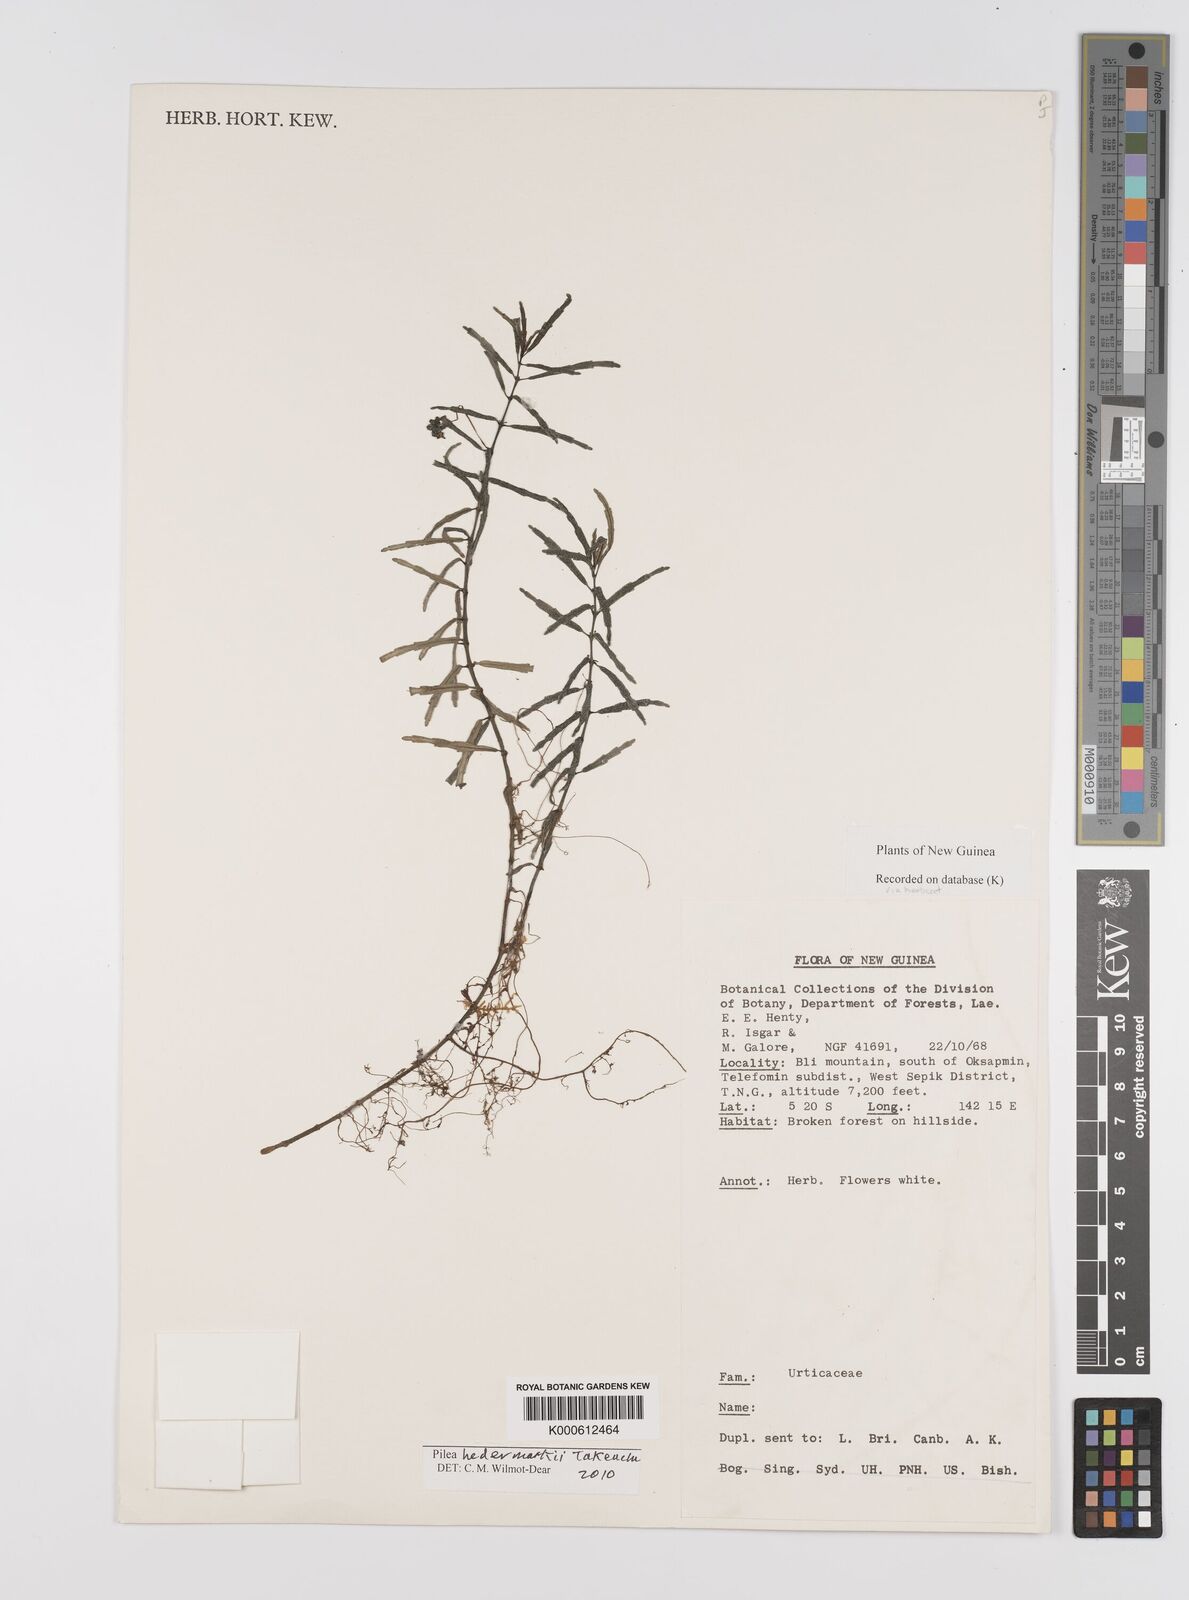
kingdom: Plantae
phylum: Tracheophyta
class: Magnoliopsida
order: Rosales
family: Urticaceae
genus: Pilea
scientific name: Pilea hedemarkii
